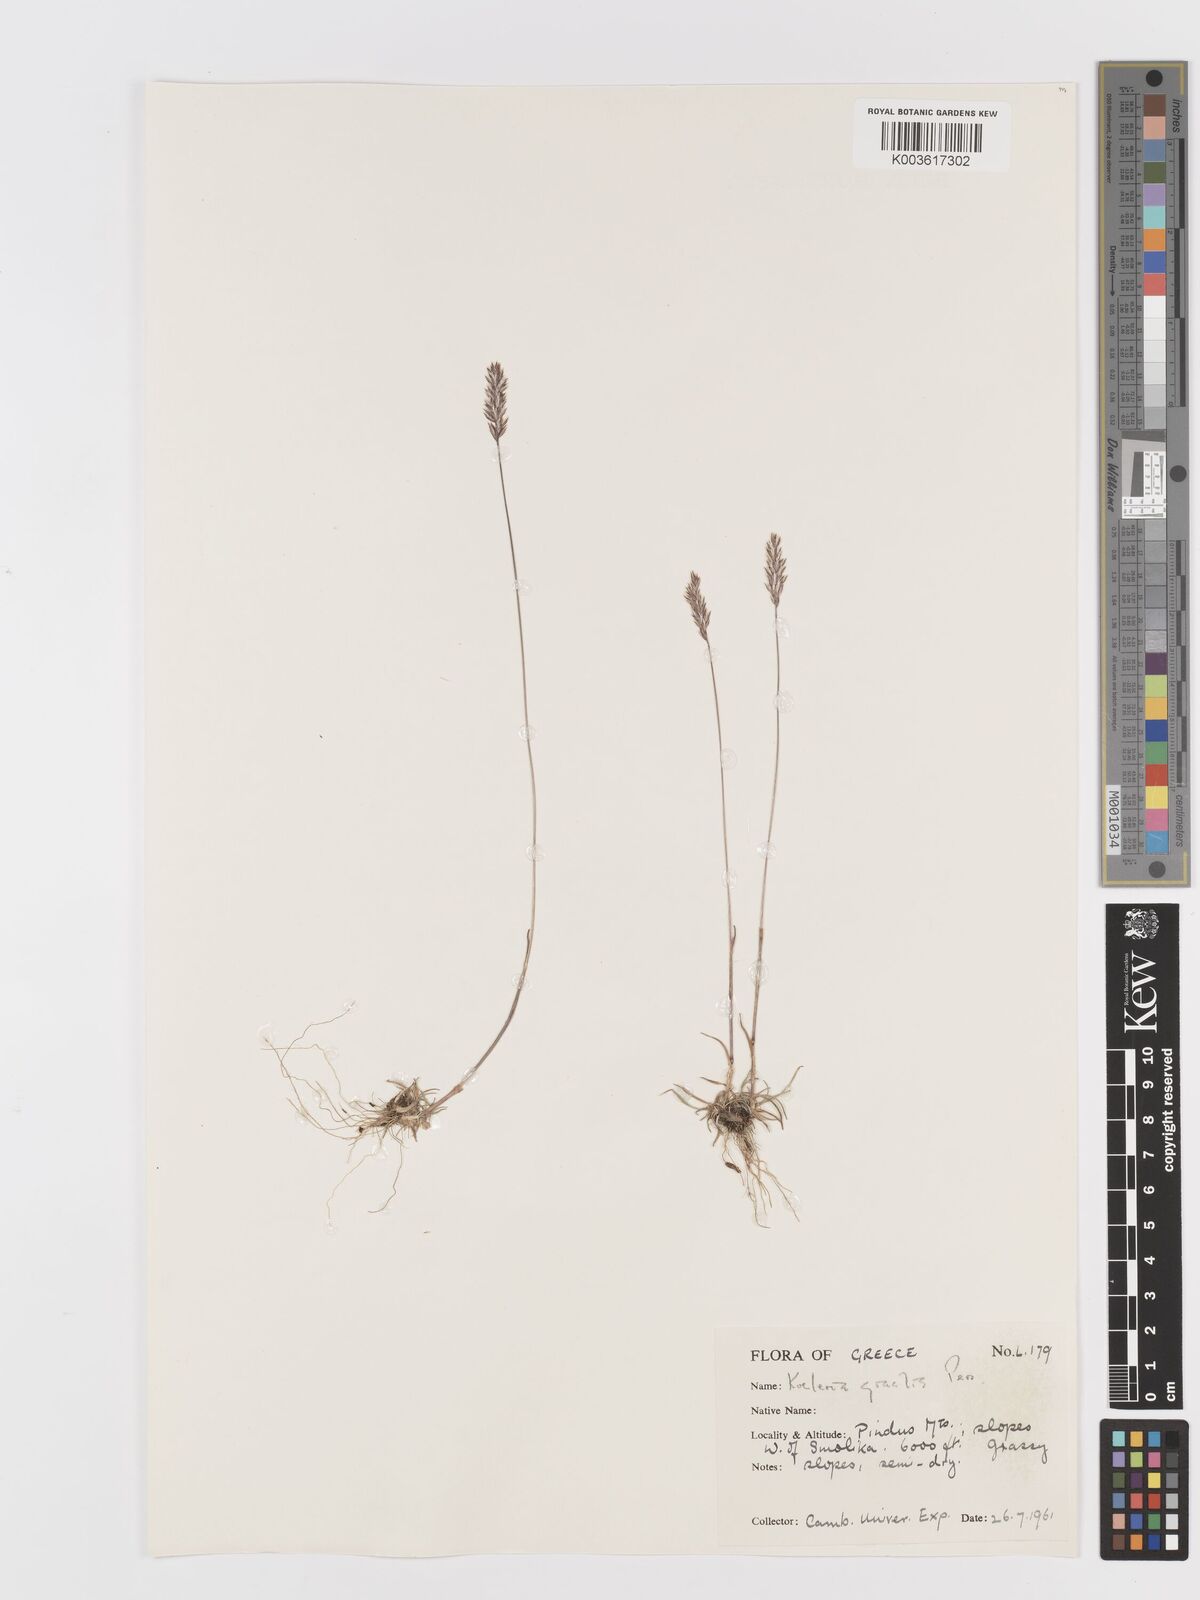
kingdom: Plantae
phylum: Tracheophyta
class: Liliopsida
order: Poales
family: Poaceae
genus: Koeleria
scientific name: Koeleria macrantha
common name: Crested hair-grass
